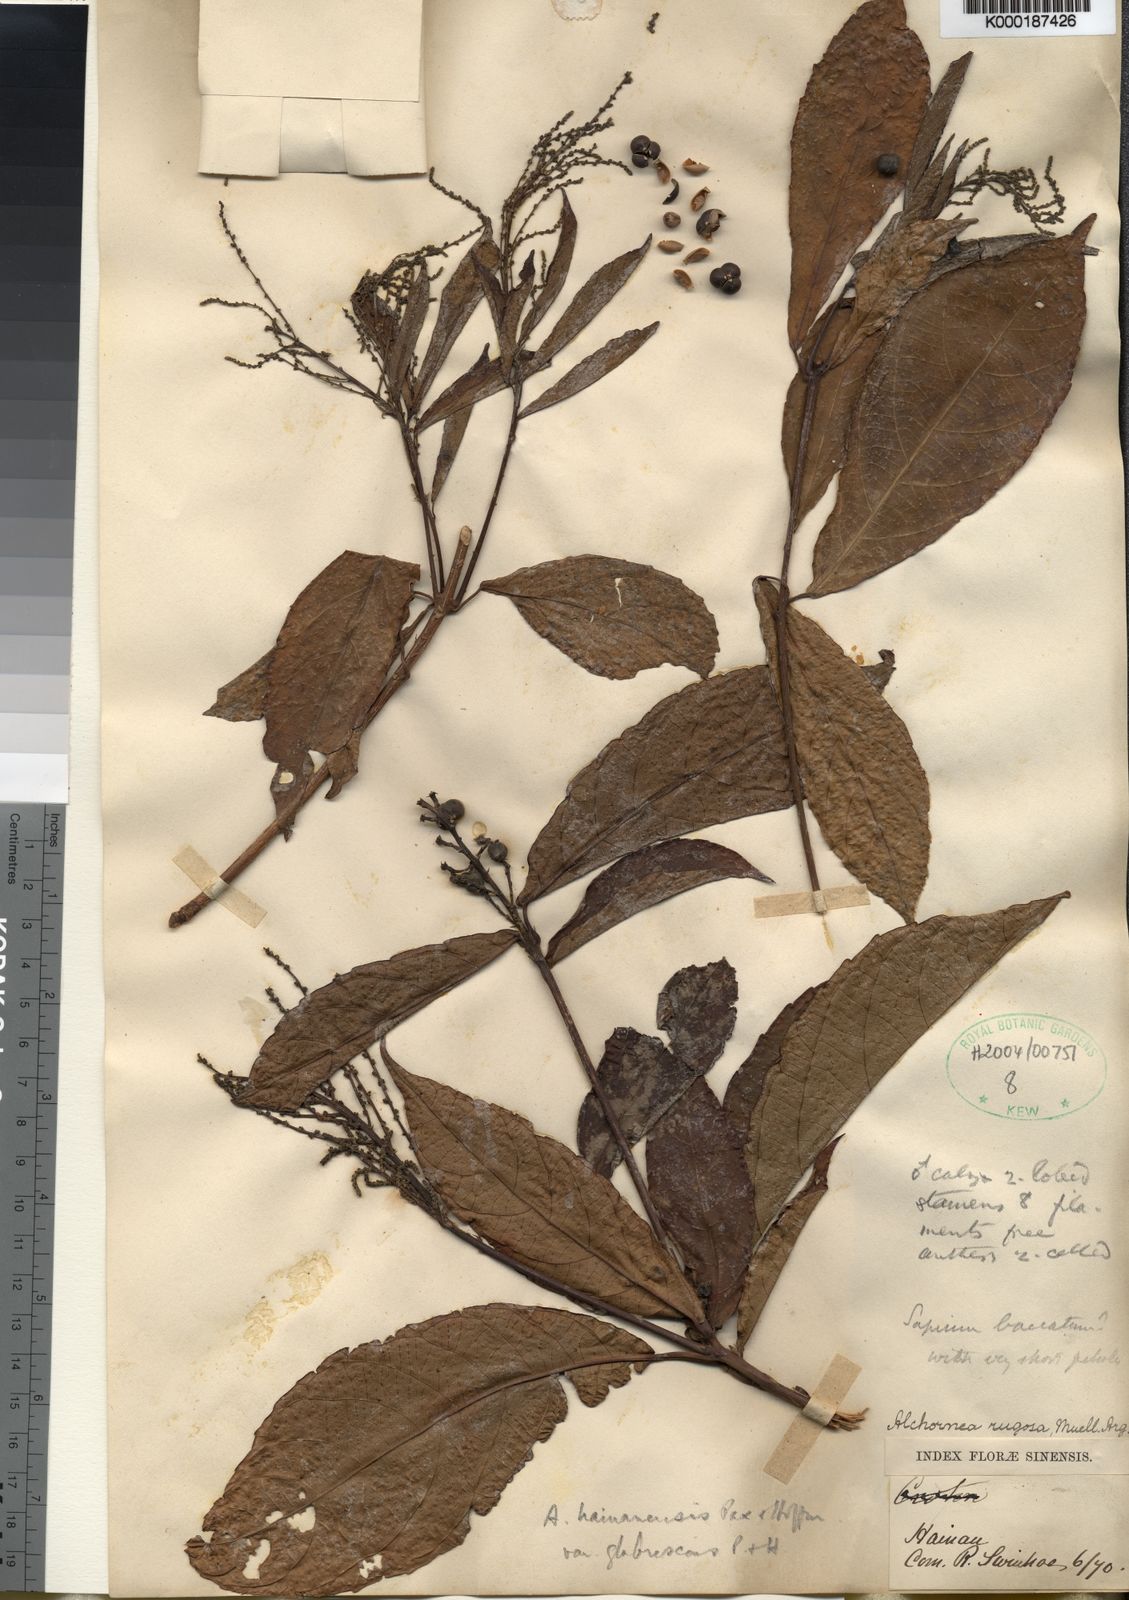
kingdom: Plantae
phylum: Tracheophyta
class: Magnoliopsida
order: Malpighiales
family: Euphorbiaceae
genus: Alchornea
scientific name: Alchornea
